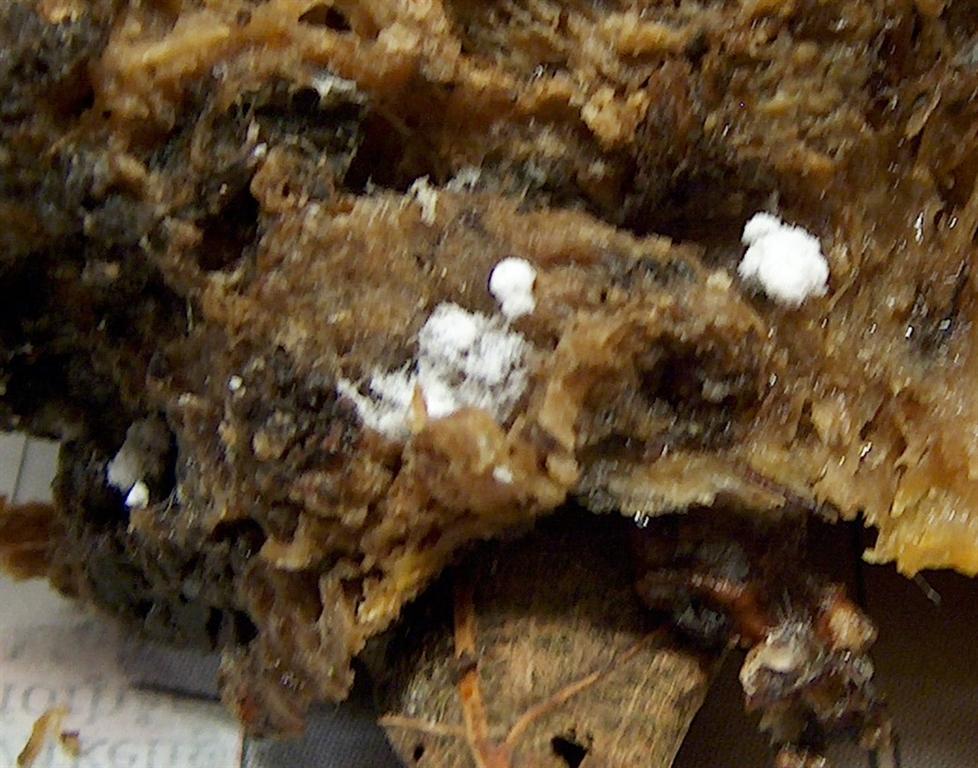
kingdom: Fungi
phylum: Ascomycota
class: Sordariomycetes
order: Hypocreales
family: Hypocreaceae
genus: Hypomyces
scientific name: Hypomyces aurantius
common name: almindelig snylteskorpe
